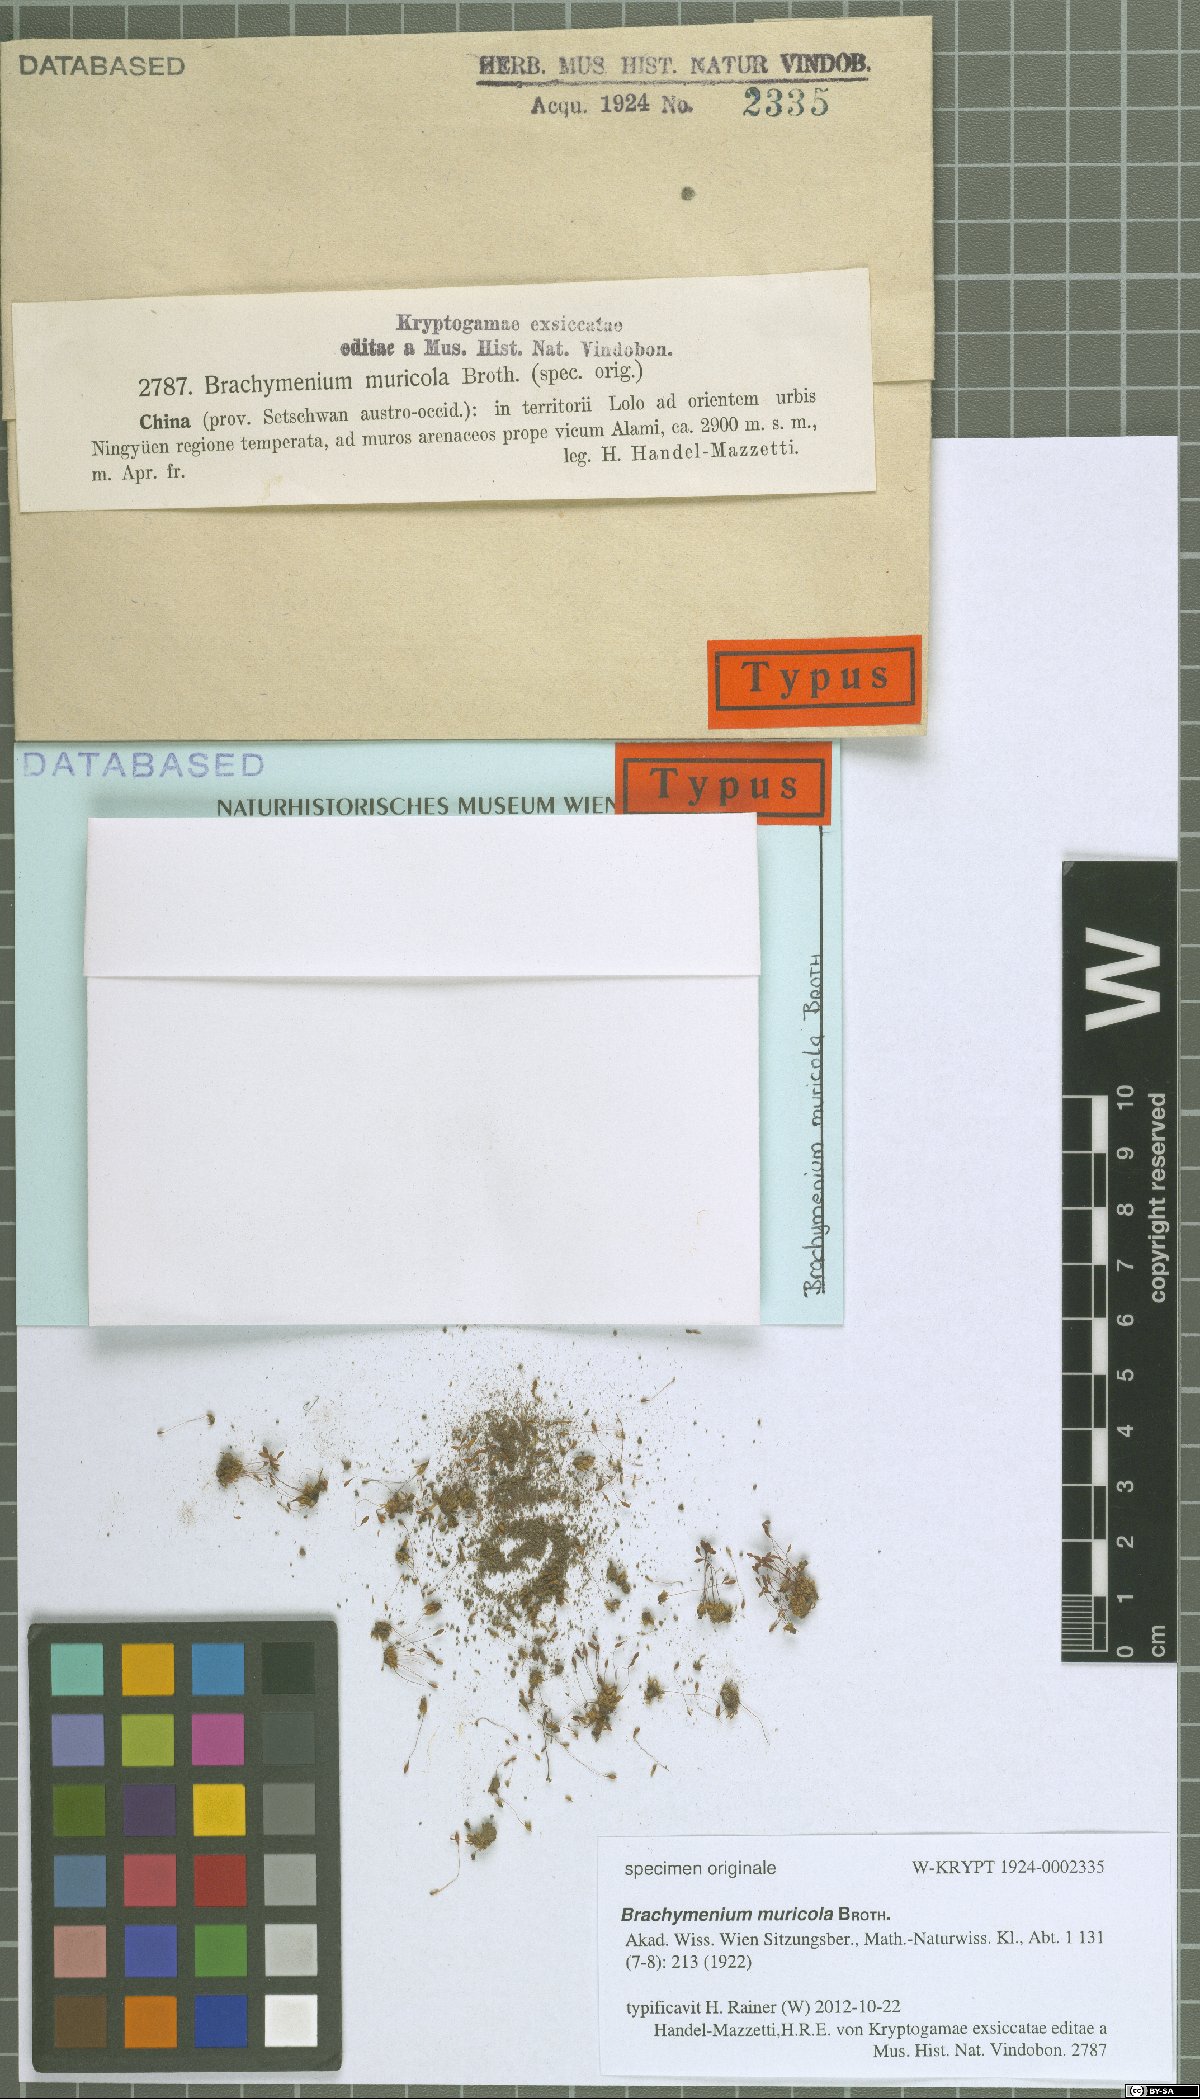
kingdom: Plantae
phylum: Bryophyta
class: Bryopsida
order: Bryales
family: Bryaceae
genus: Brachymenium
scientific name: Brachymenium muricola
